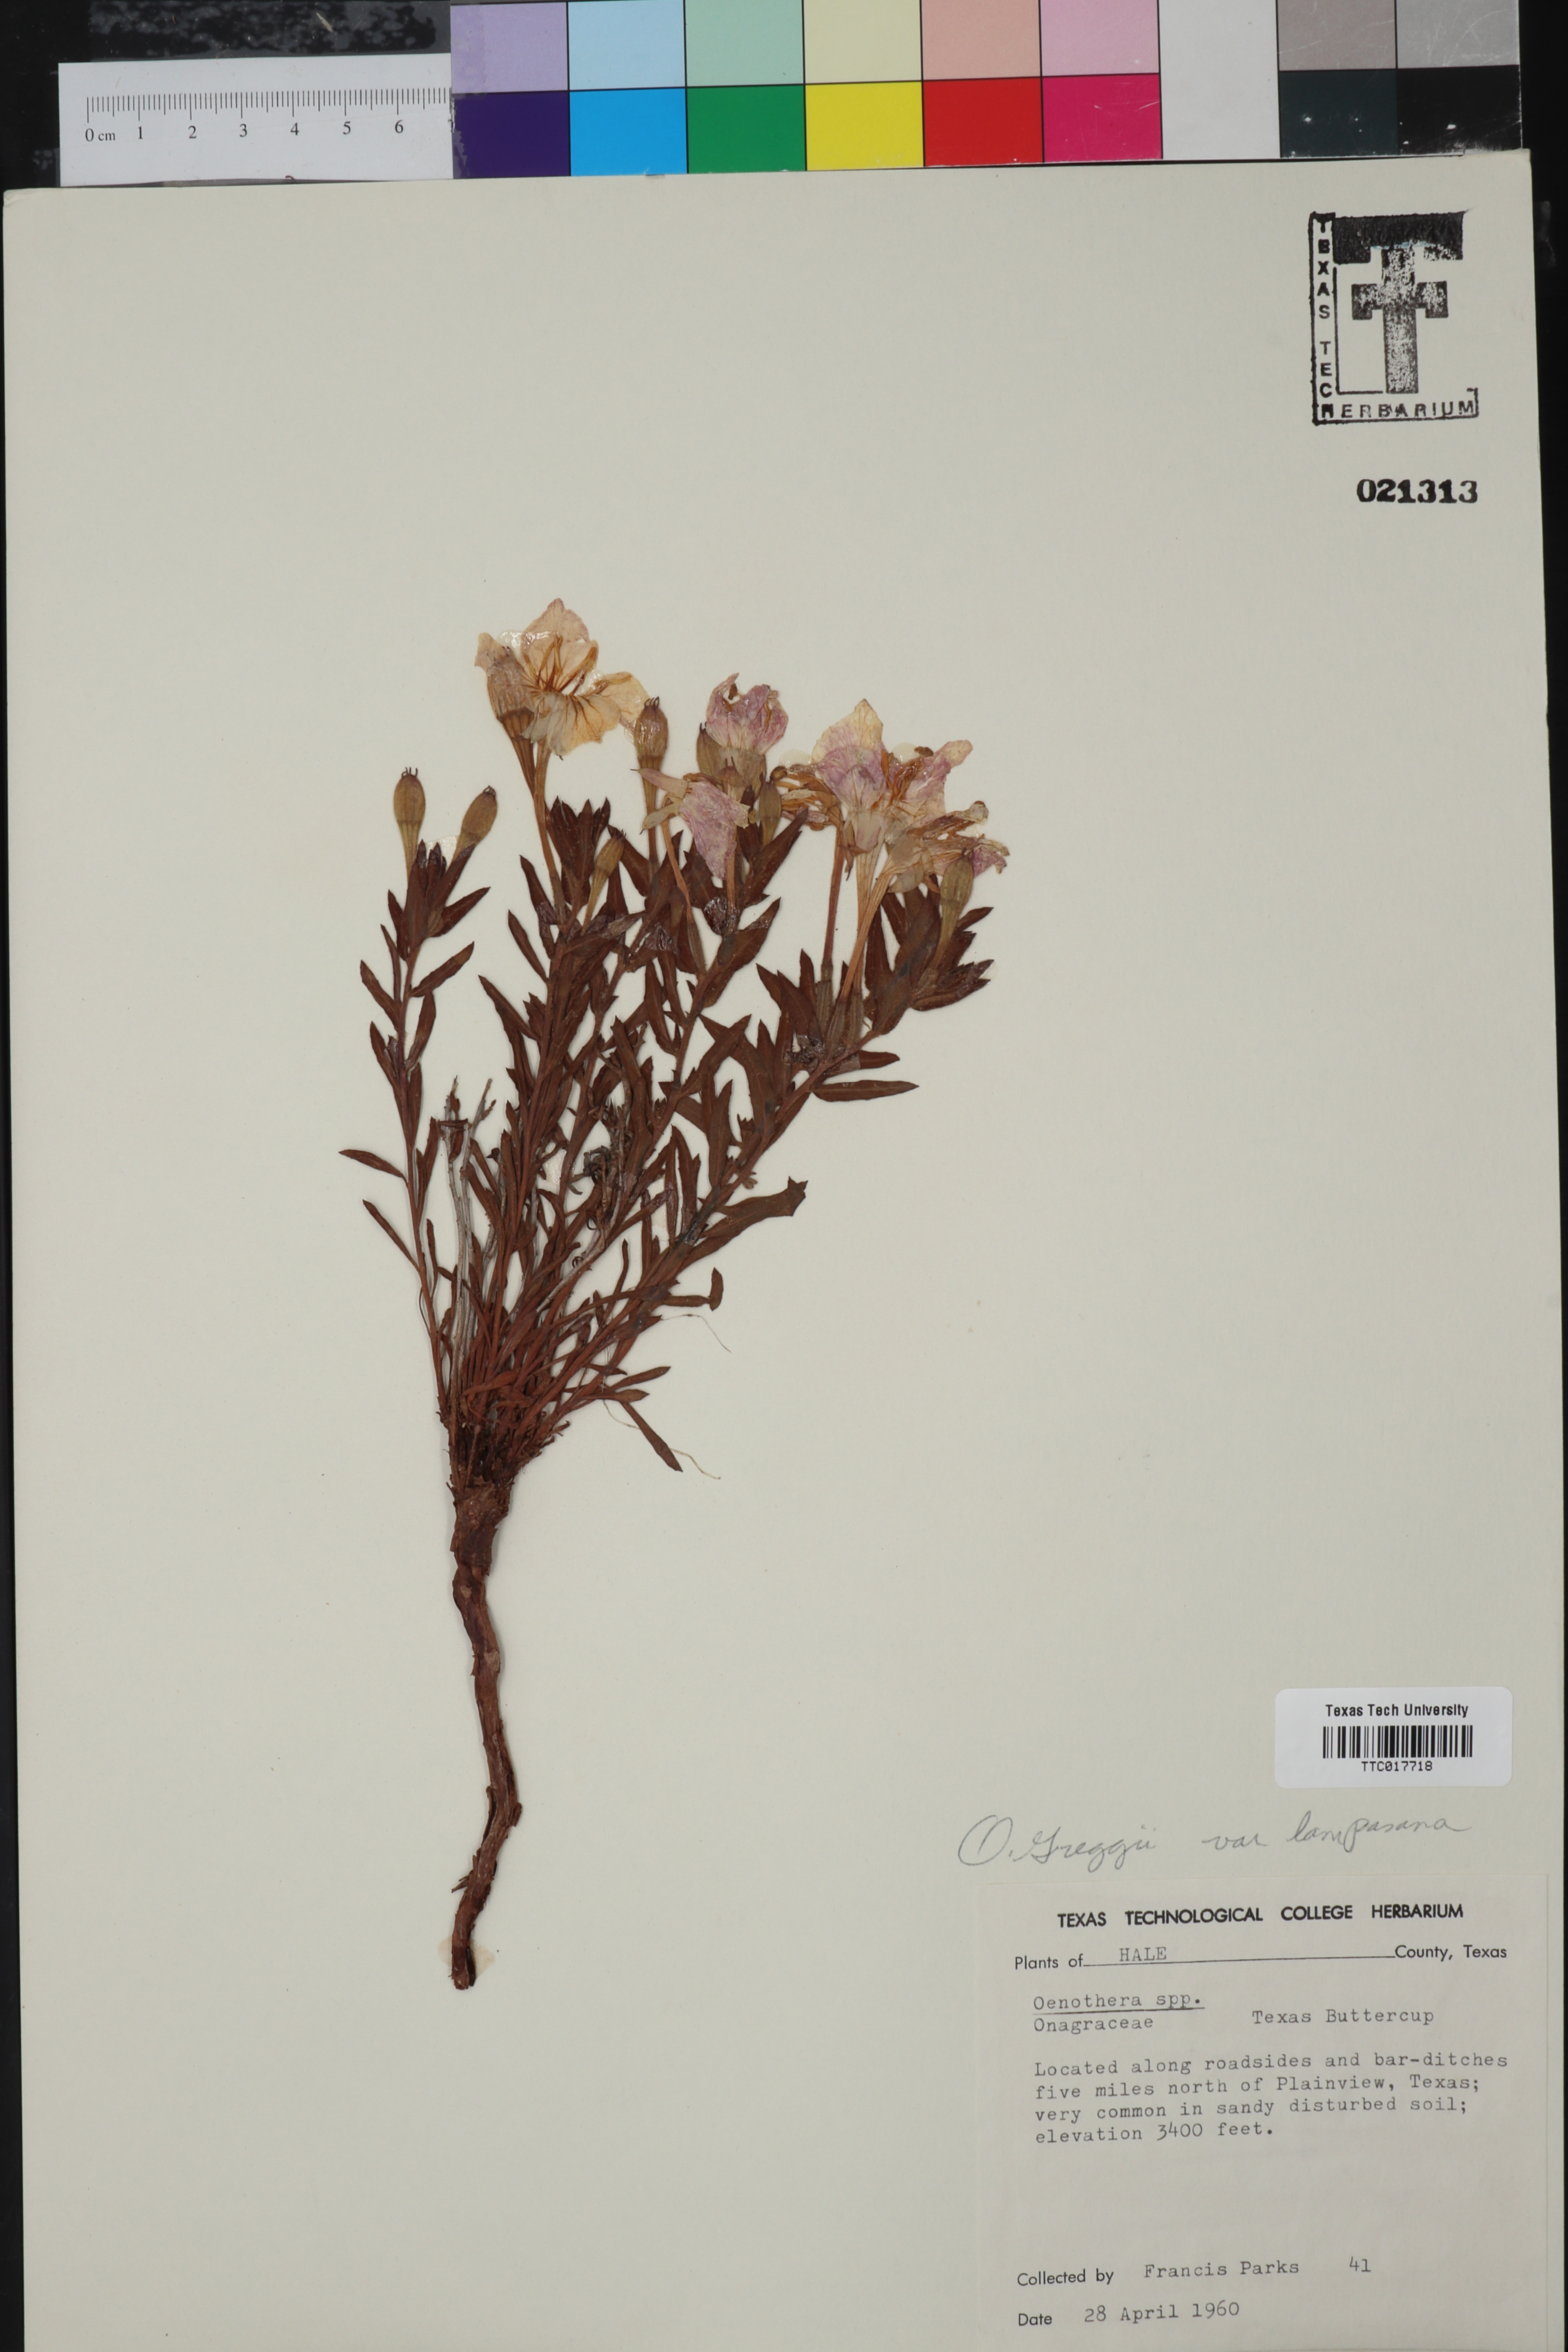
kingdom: Plantae
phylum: Tracheophyta
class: Magnoliopsida
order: Myrtales
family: Onagraceae
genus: Oenothera
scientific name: Oenothera hartwegii
